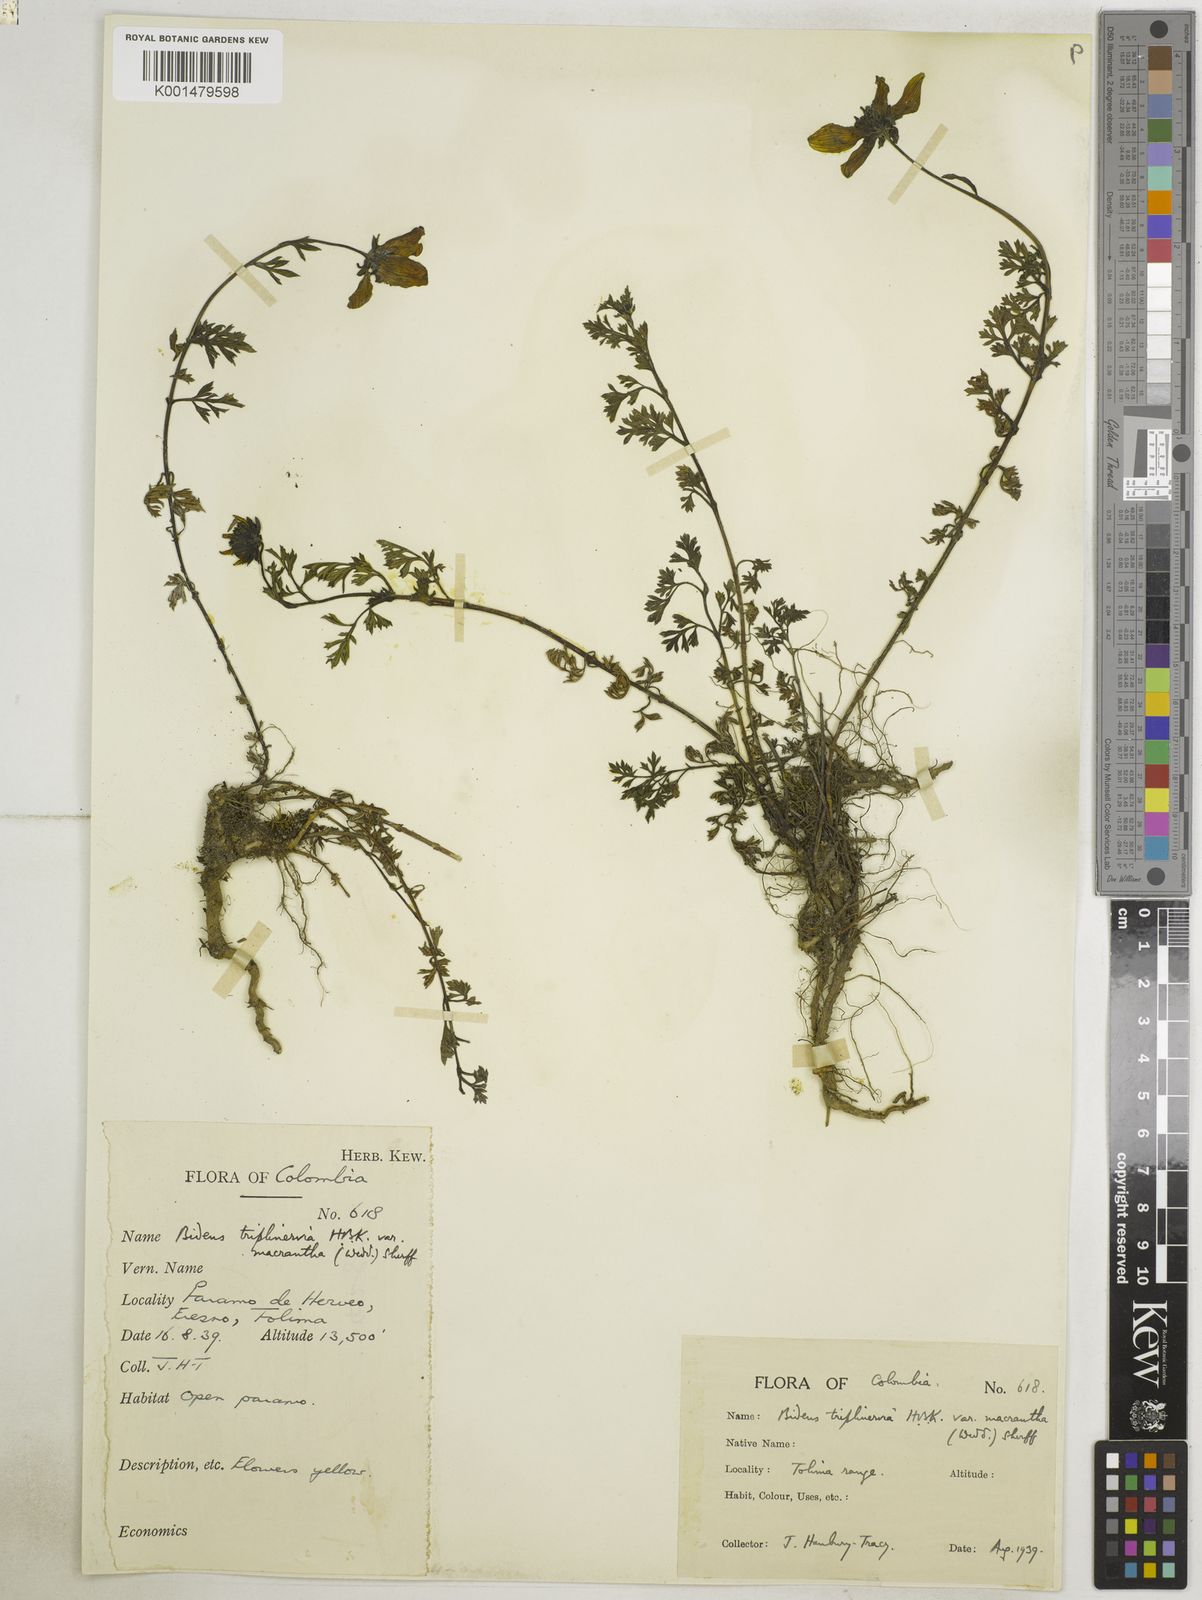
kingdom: Plantae
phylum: Tracheophyta
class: Magnoliopsida
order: Asterales
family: Asteraceae
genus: Bidens
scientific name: Bidens triplinervia
